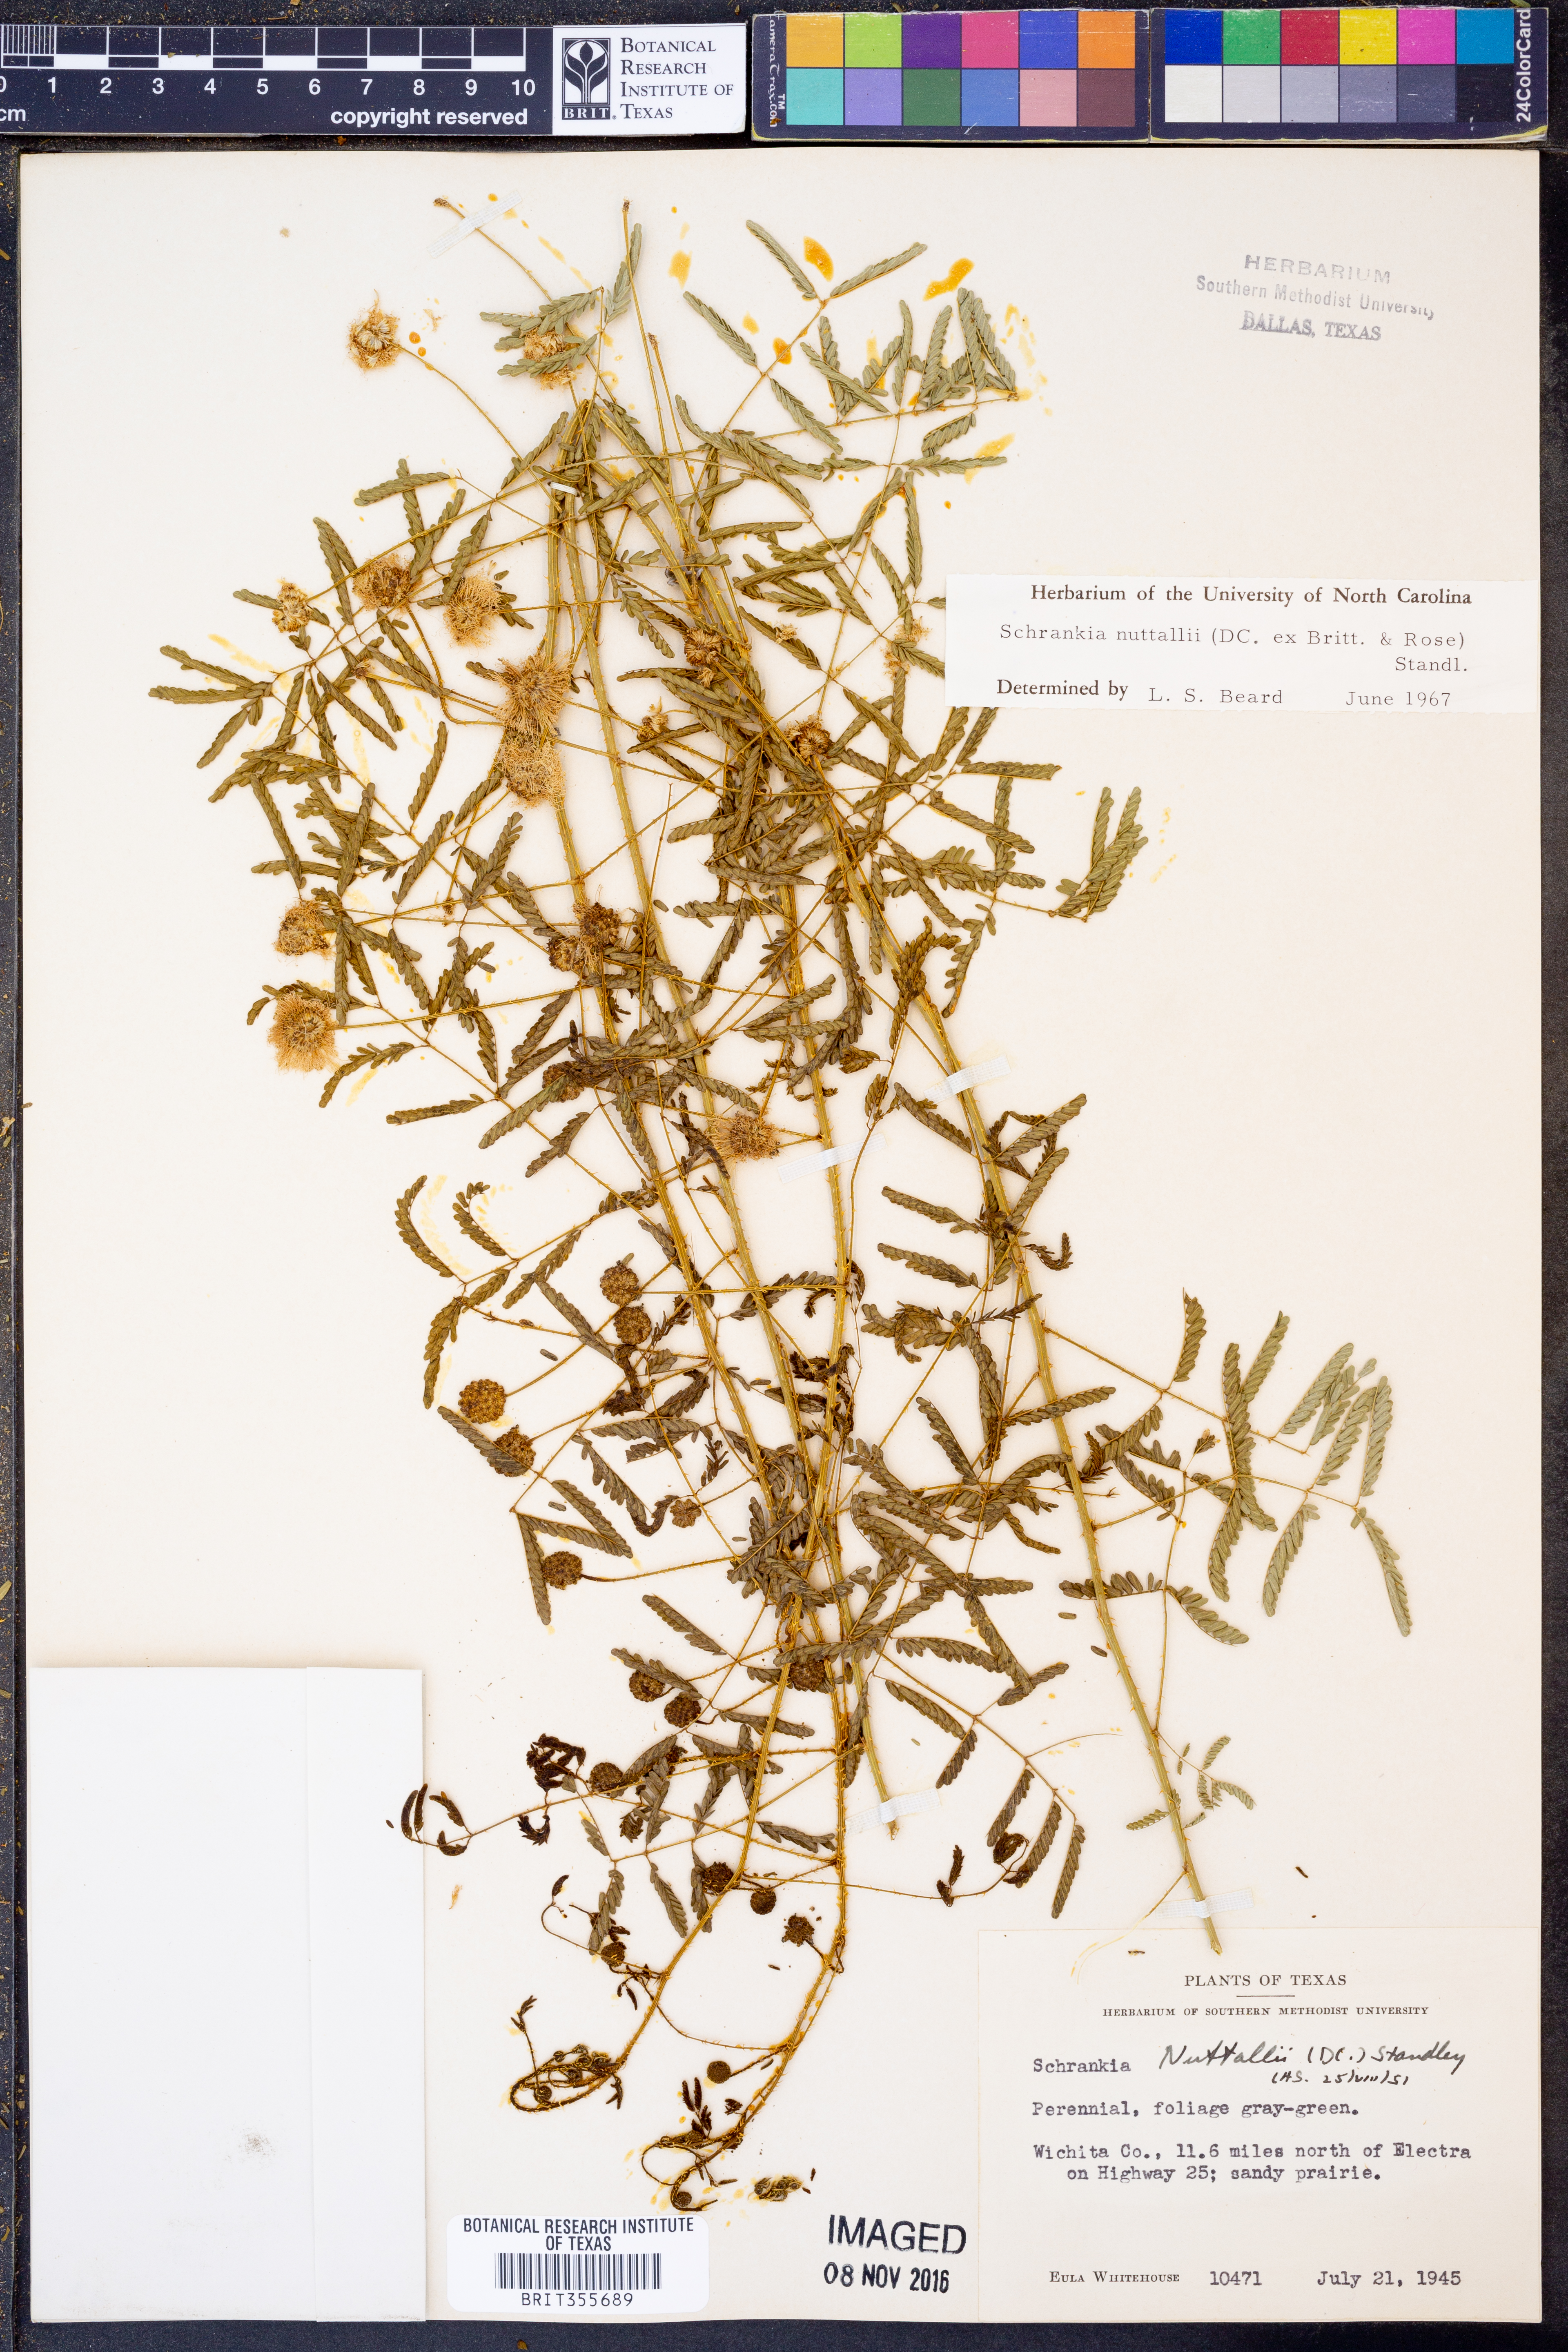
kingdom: Plantae
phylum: Tracheophyta
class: Magnoliopsida
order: Fabales
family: Fabaceae
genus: Mimosa
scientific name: Mimosa quadrivalvis
